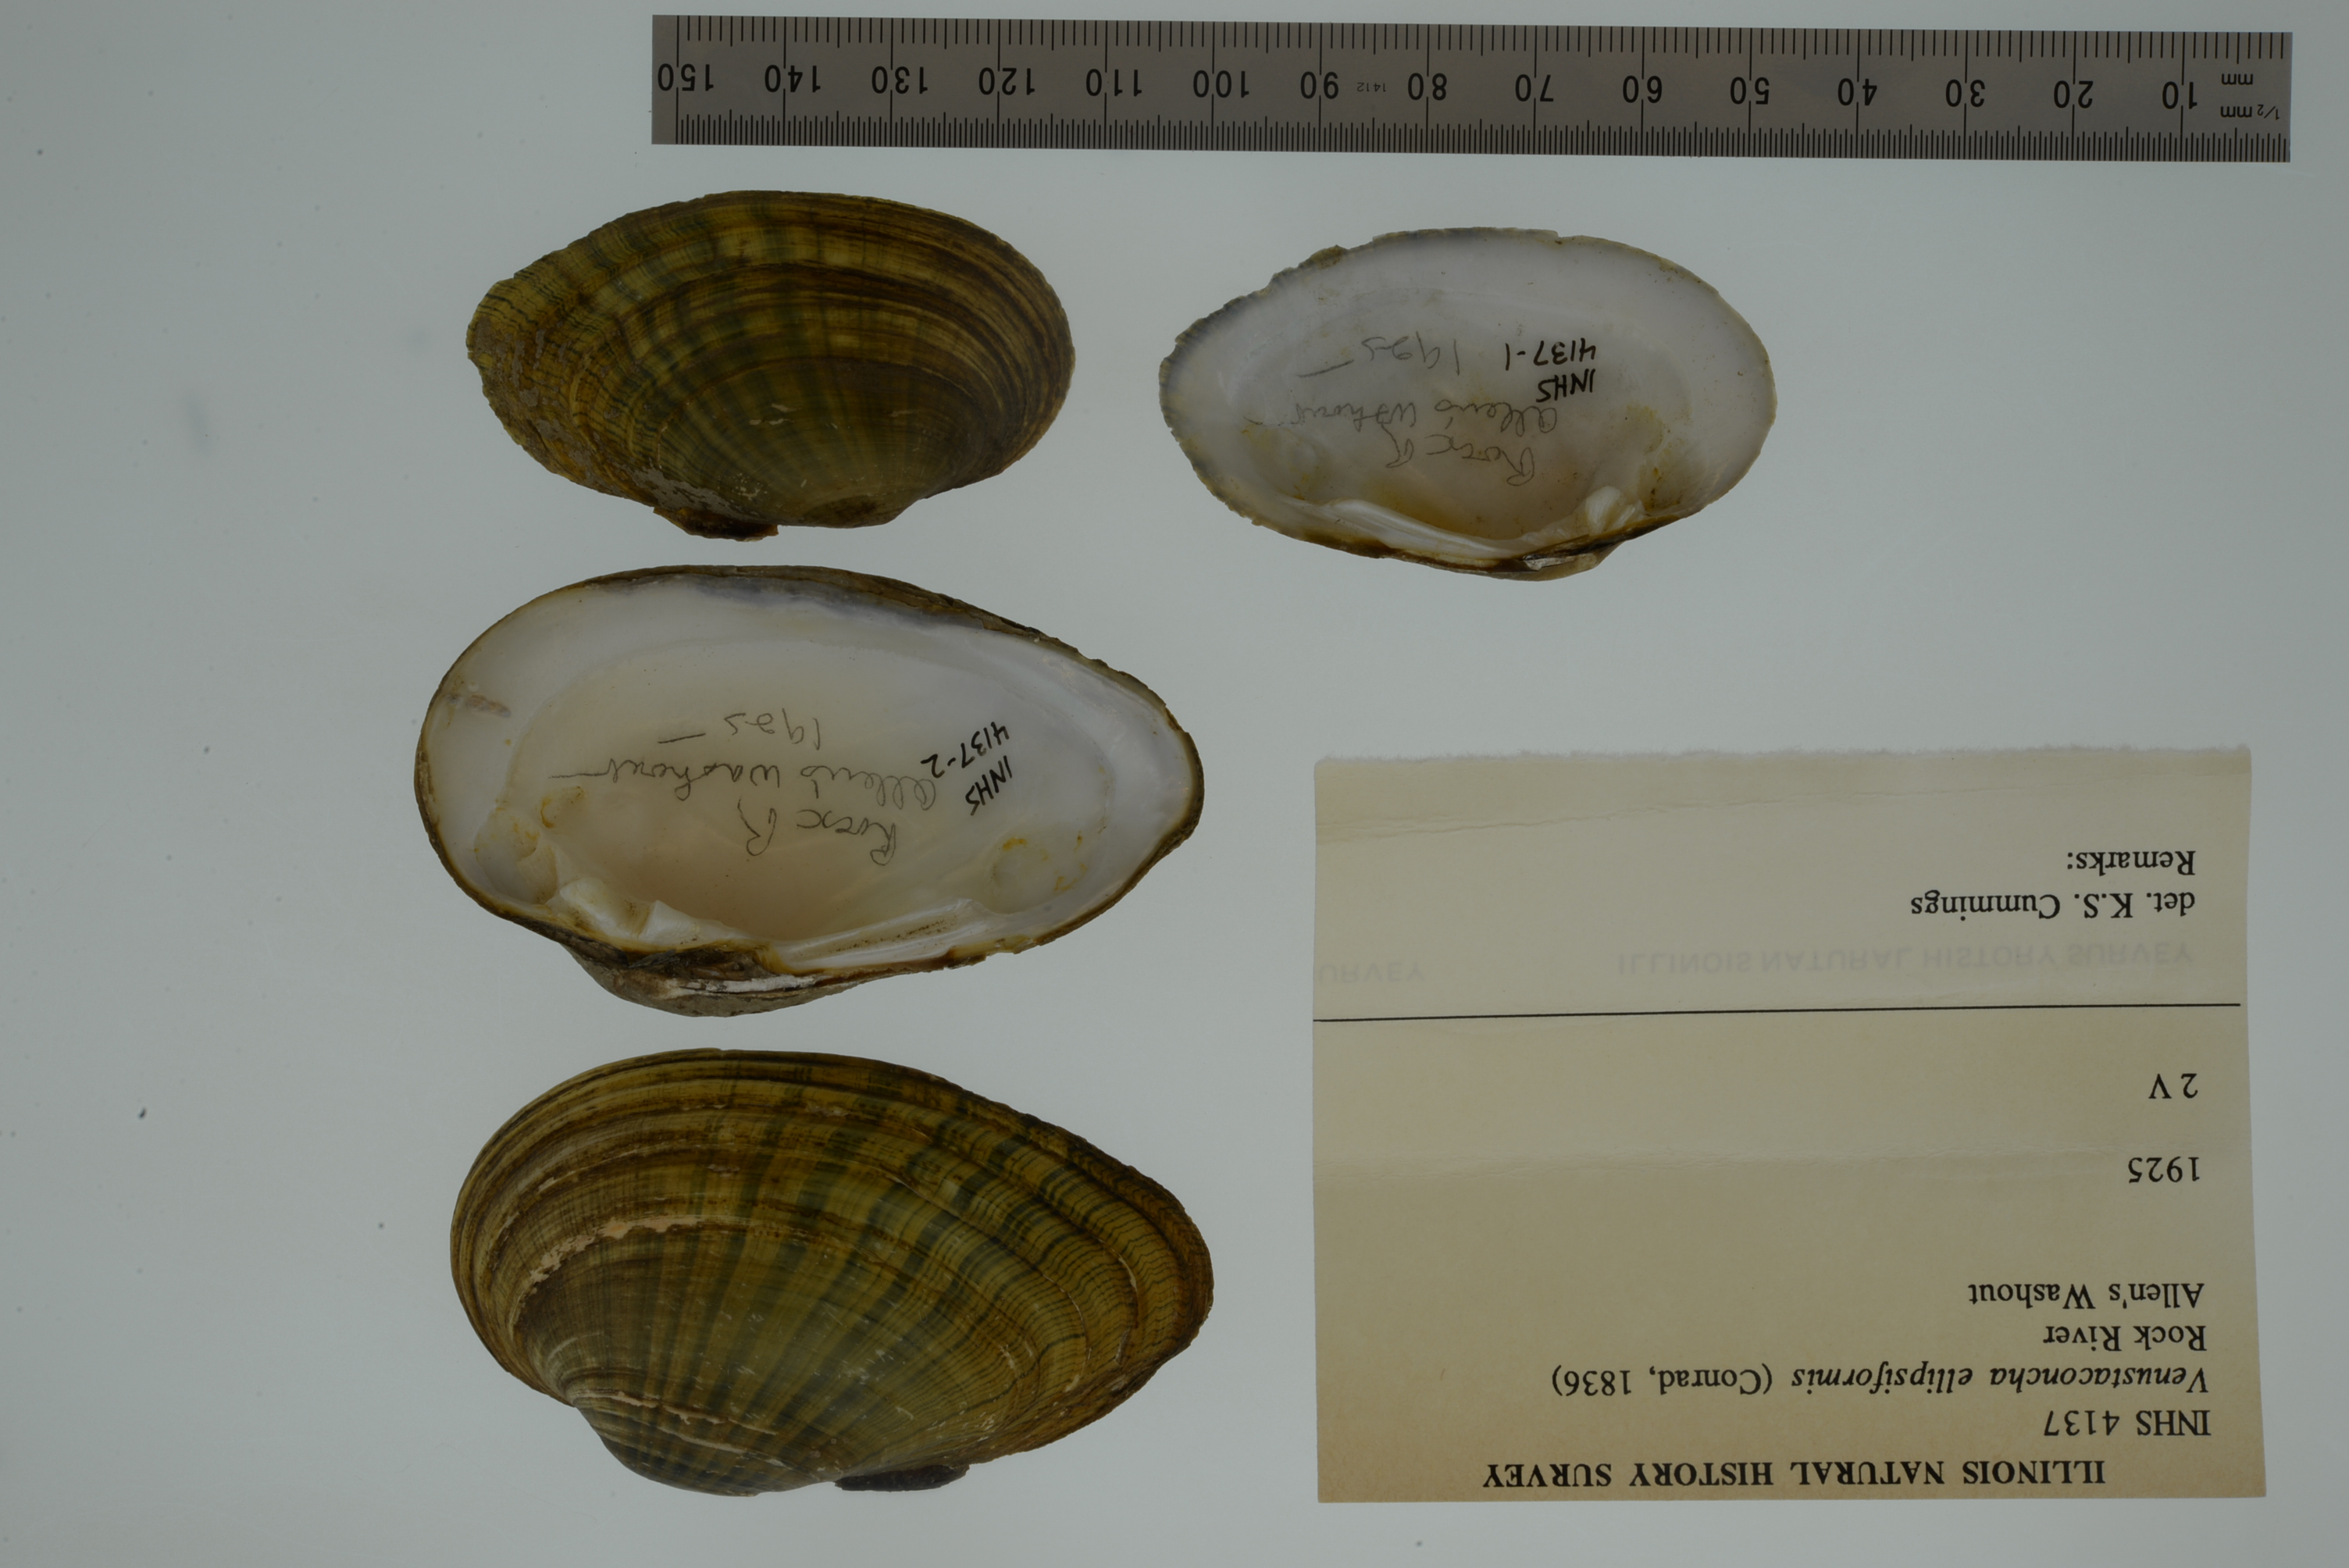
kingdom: Animalia
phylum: Mollusca
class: Bivalvia
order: Unionida
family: Unionidae
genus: Venustaconcha
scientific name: Venustaconcha ellipsiformis
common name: Ellipse
